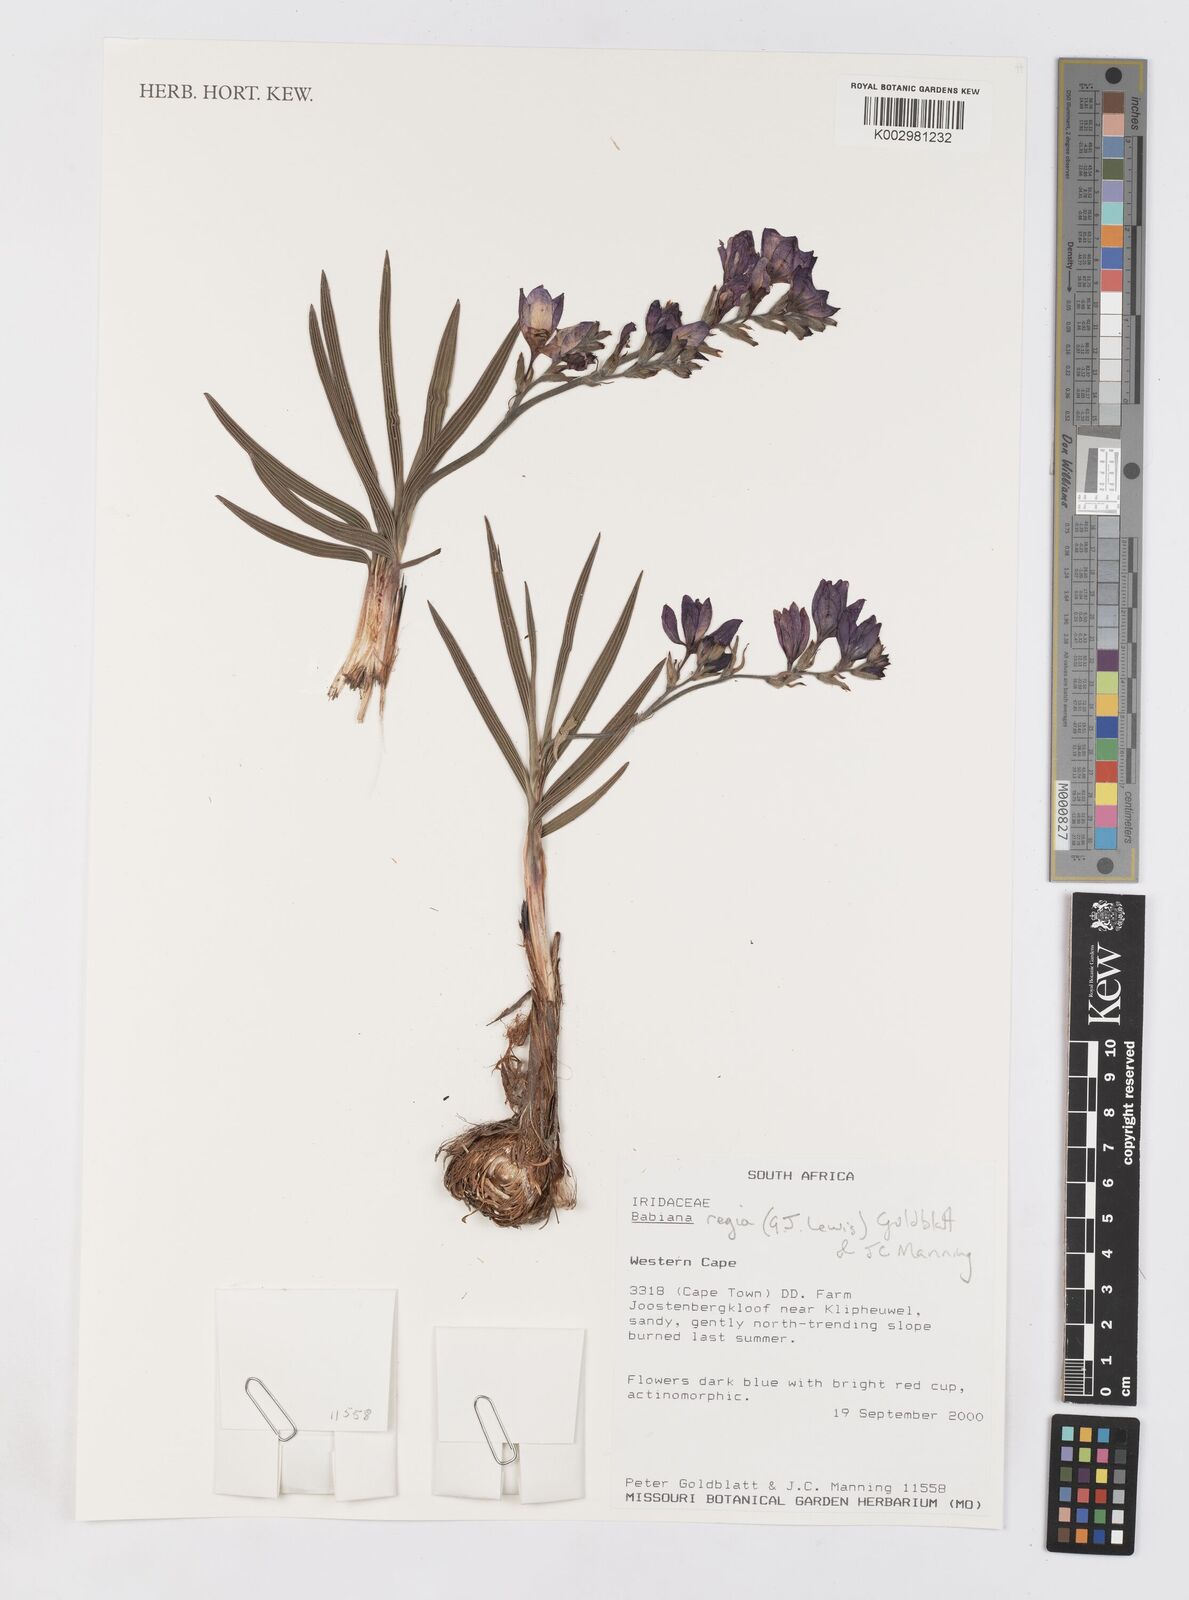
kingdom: Plantae
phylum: Tracheophyta
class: Liliopsida
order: Asparagales
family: Iridaceae
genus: Babiana
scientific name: Babiana regia
